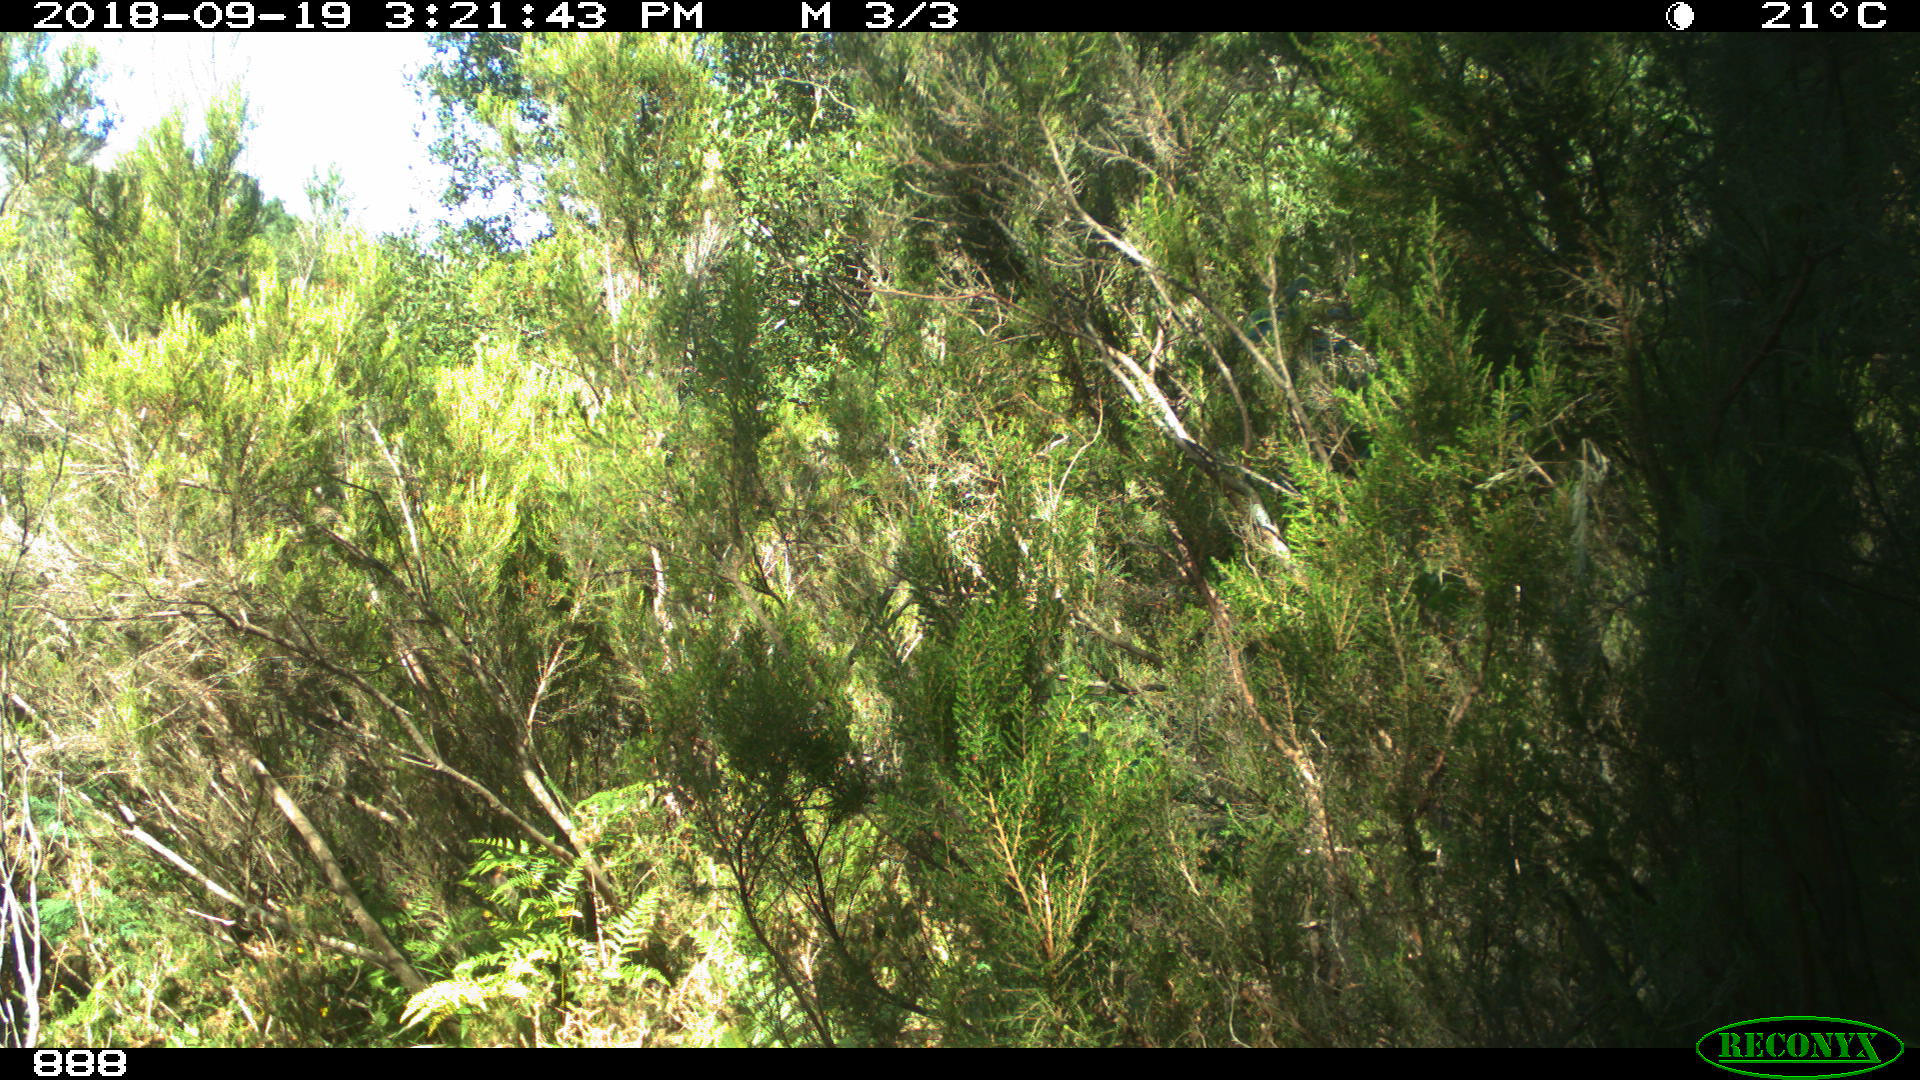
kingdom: Animalia
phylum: Chordata
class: Mammalia
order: Perissodactyla
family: Equidae
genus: Equus
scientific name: Equus caballus
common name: Horse
